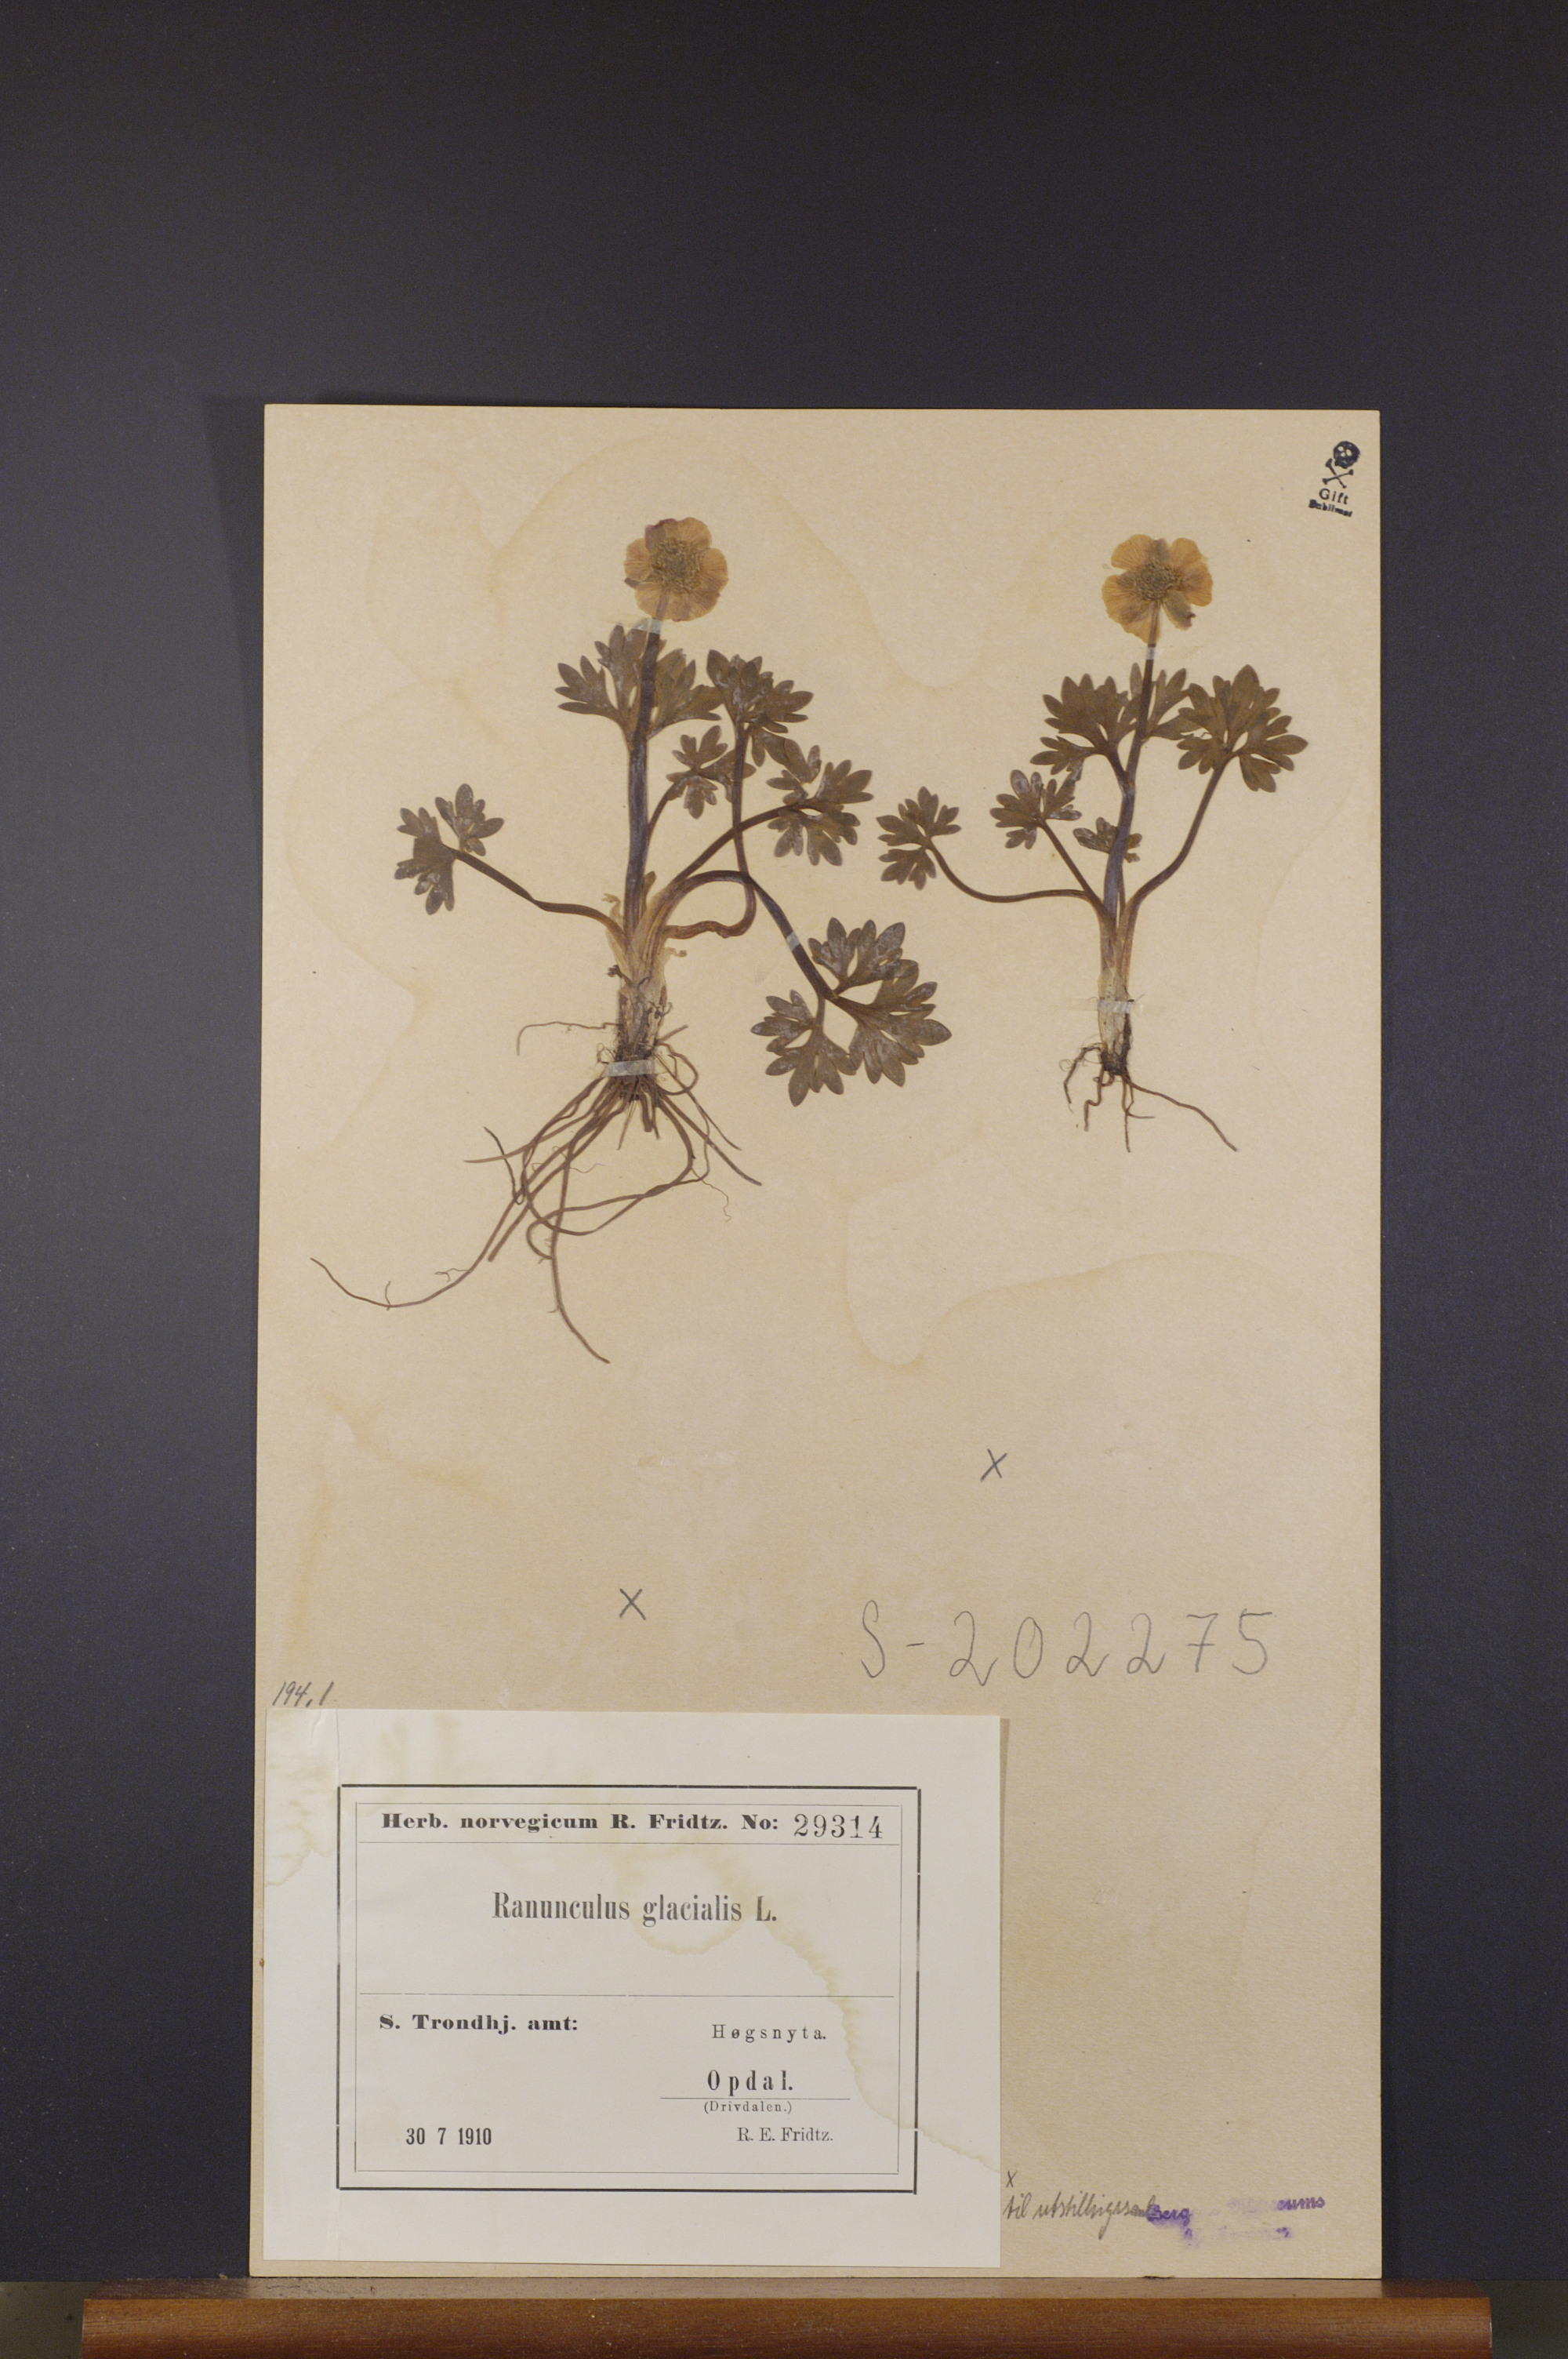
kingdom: Plantae
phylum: Tracheophyta
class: Magnoliopsida
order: Ranunculales
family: Ranunculaceae
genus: Ranunculus
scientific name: Ranunculus glacialis
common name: Glacier buttercup
